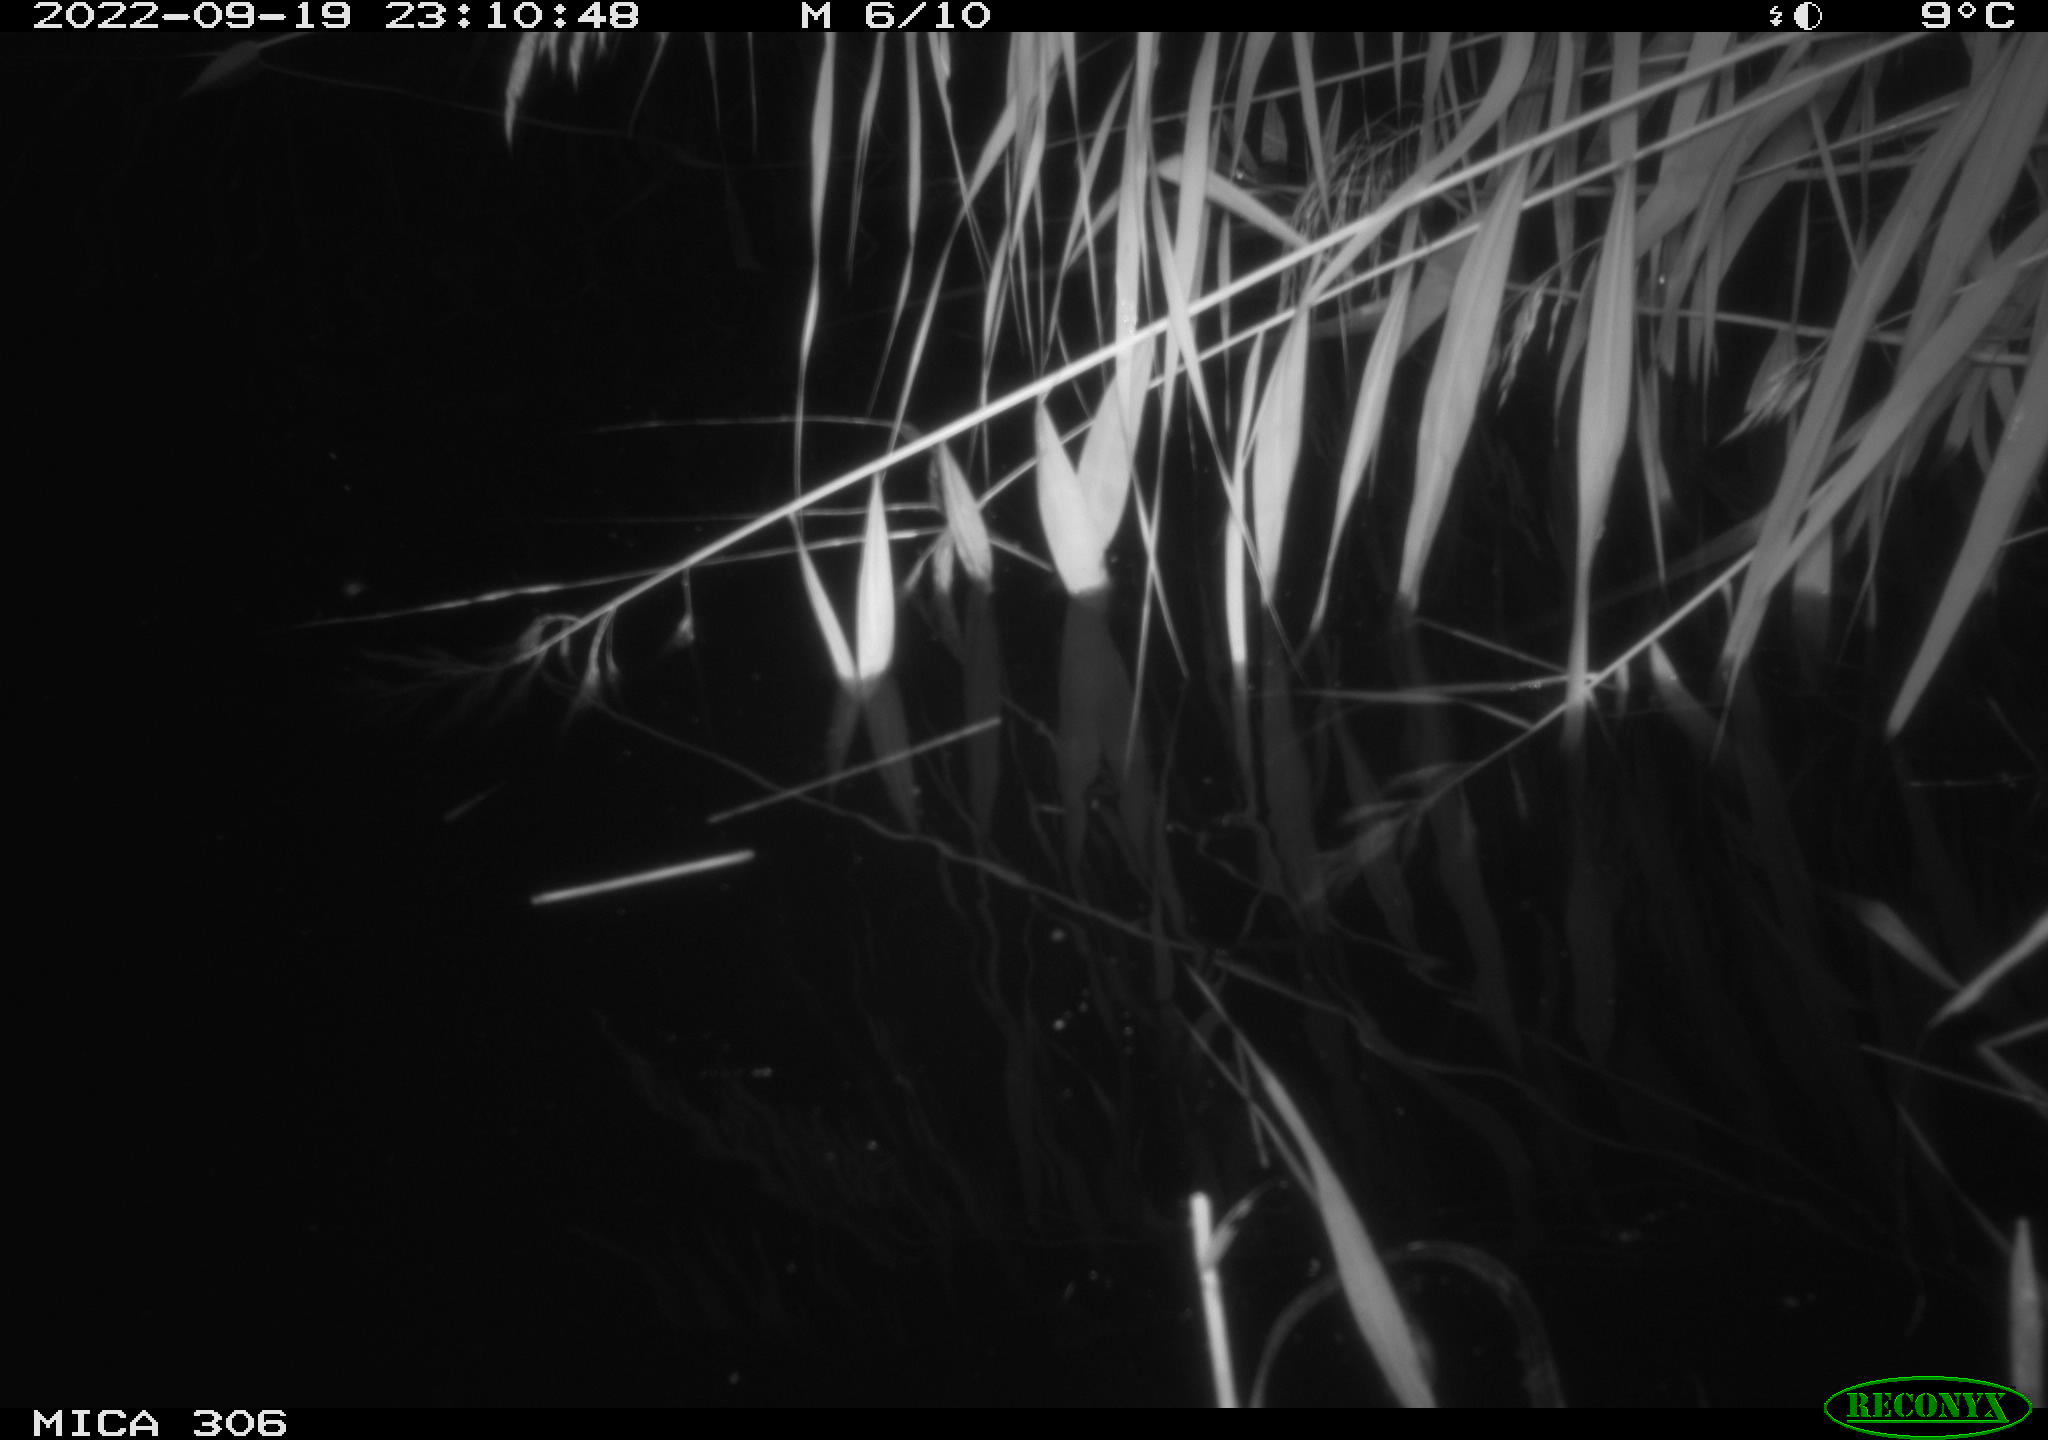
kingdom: Animalia
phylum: Chordata
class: Aves
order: Anseriformes
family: Anatidae
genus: Anas
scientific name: Anas
